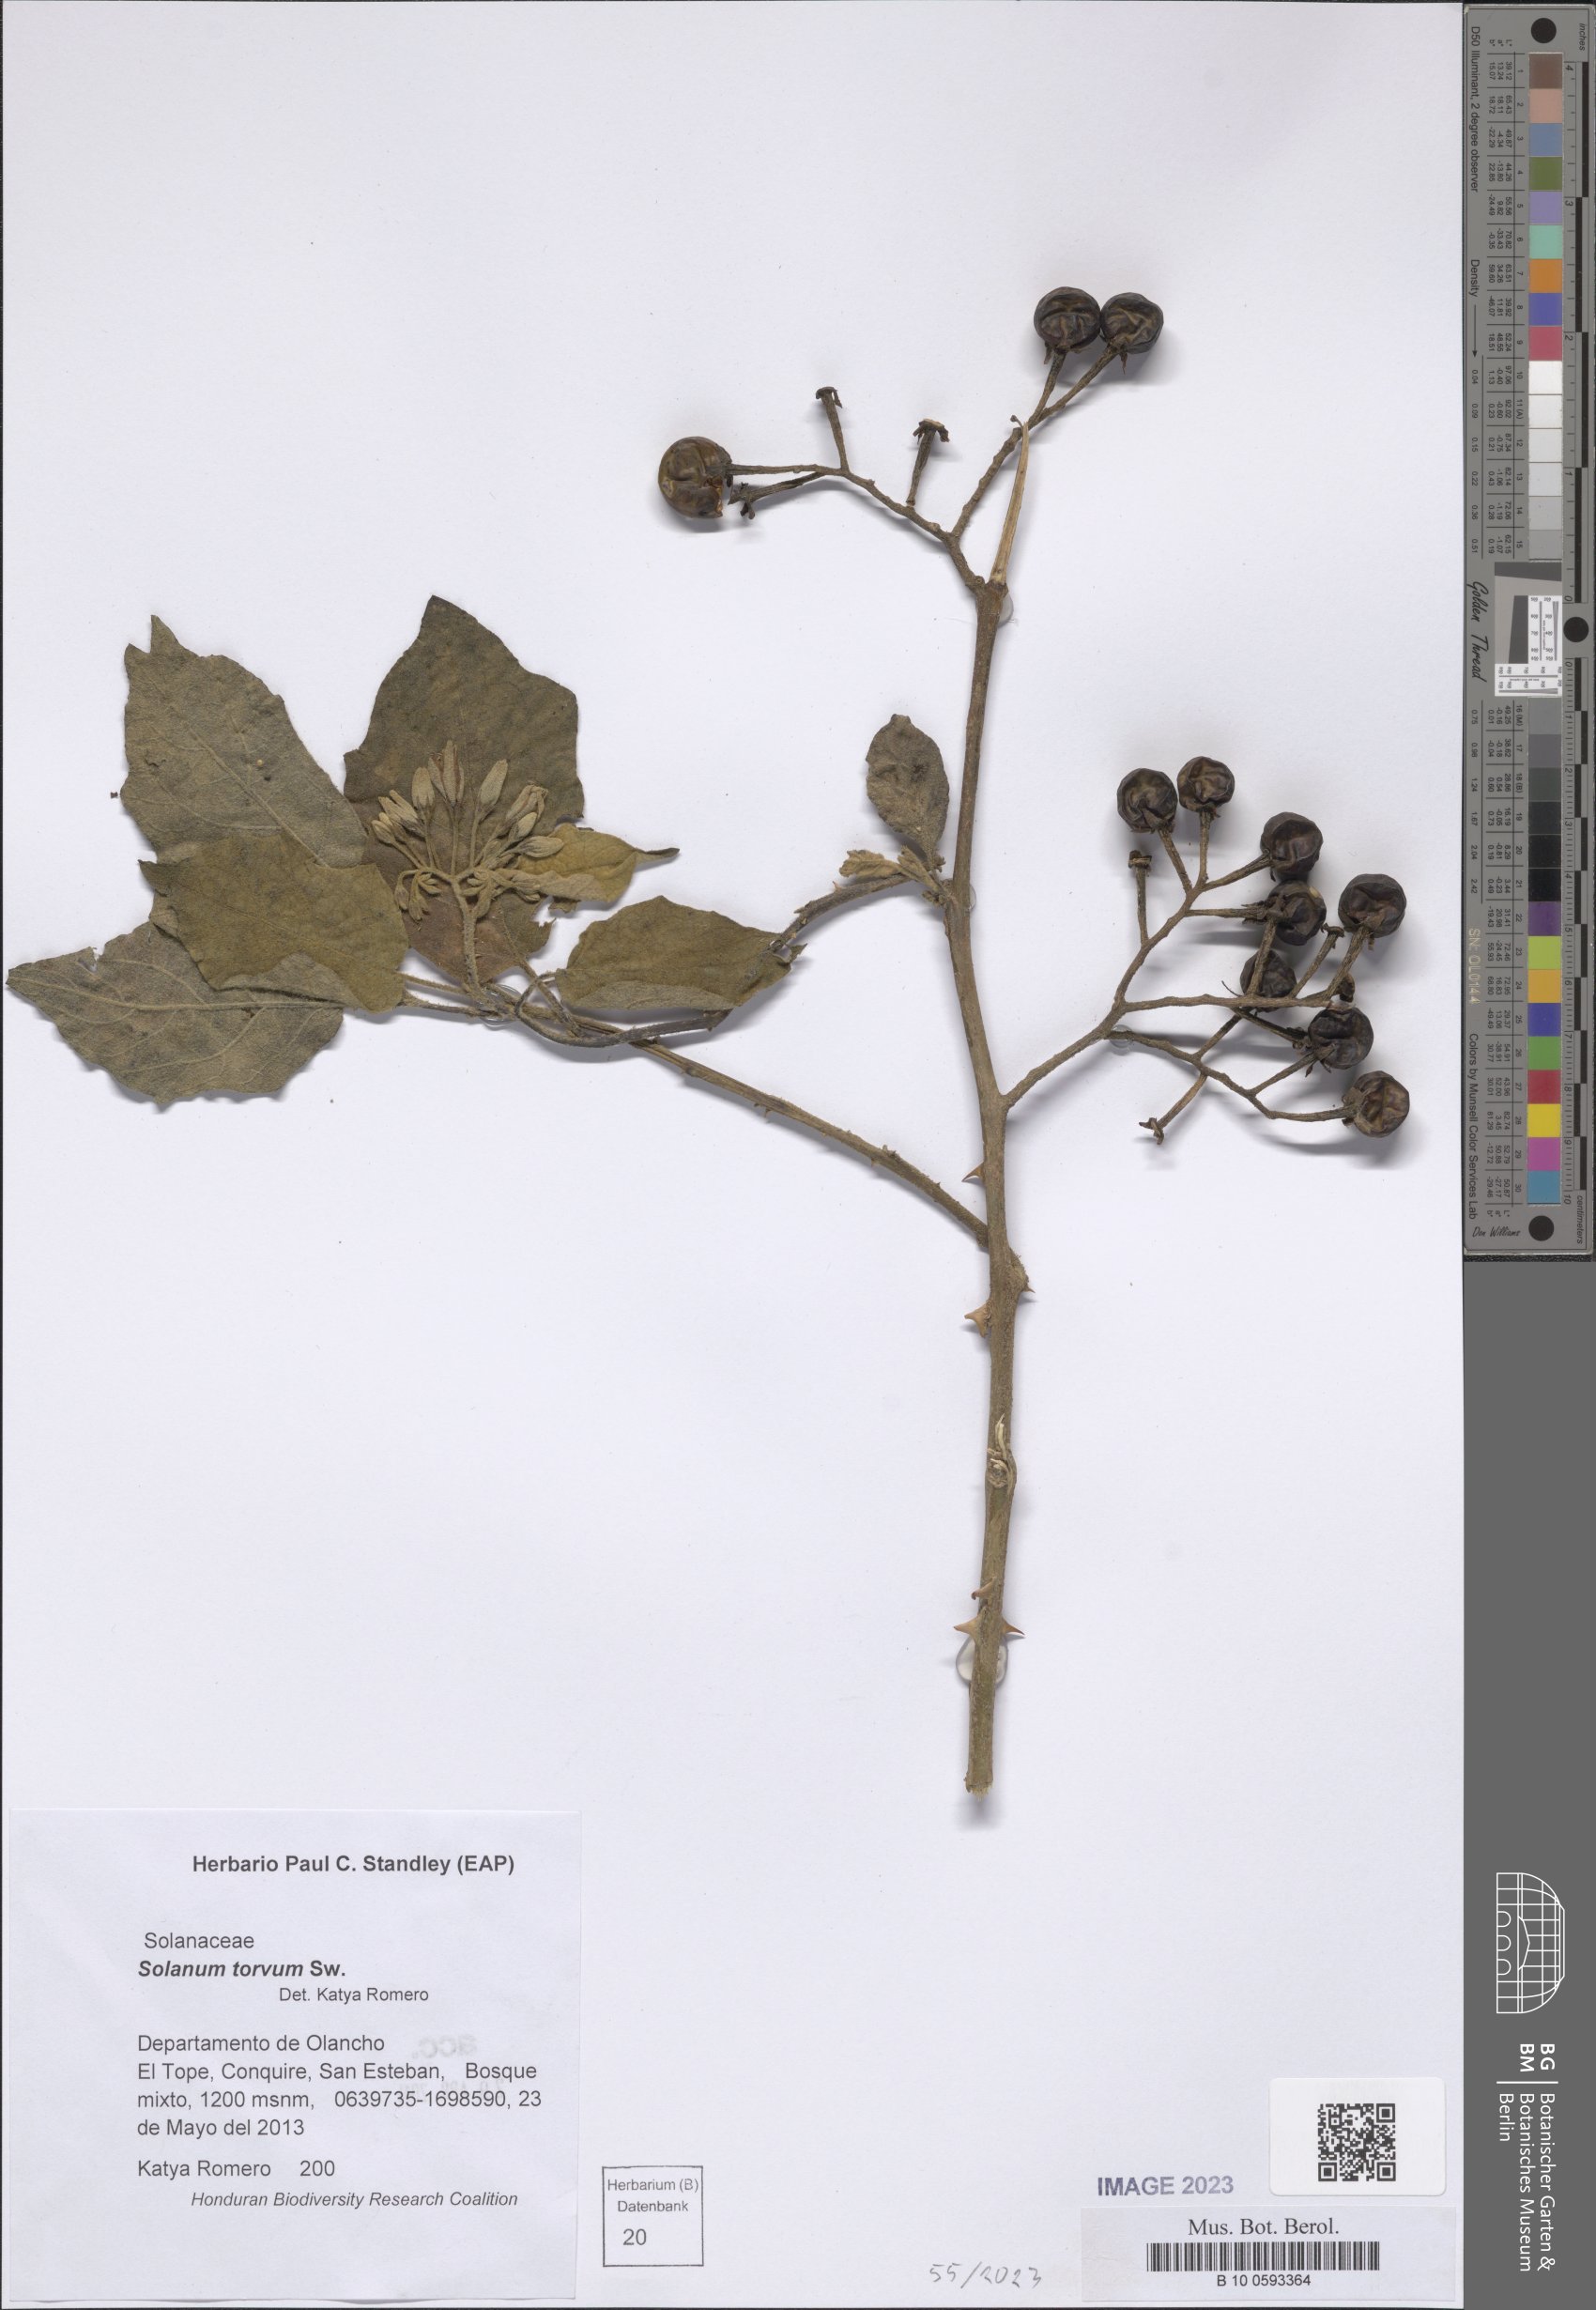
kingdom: Plantae
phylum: Tracheophyta
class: Magnoliopsida
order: Solanales
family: Solanaceae
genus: Solanum
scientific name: Solanum torvum
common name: Turkey berry
